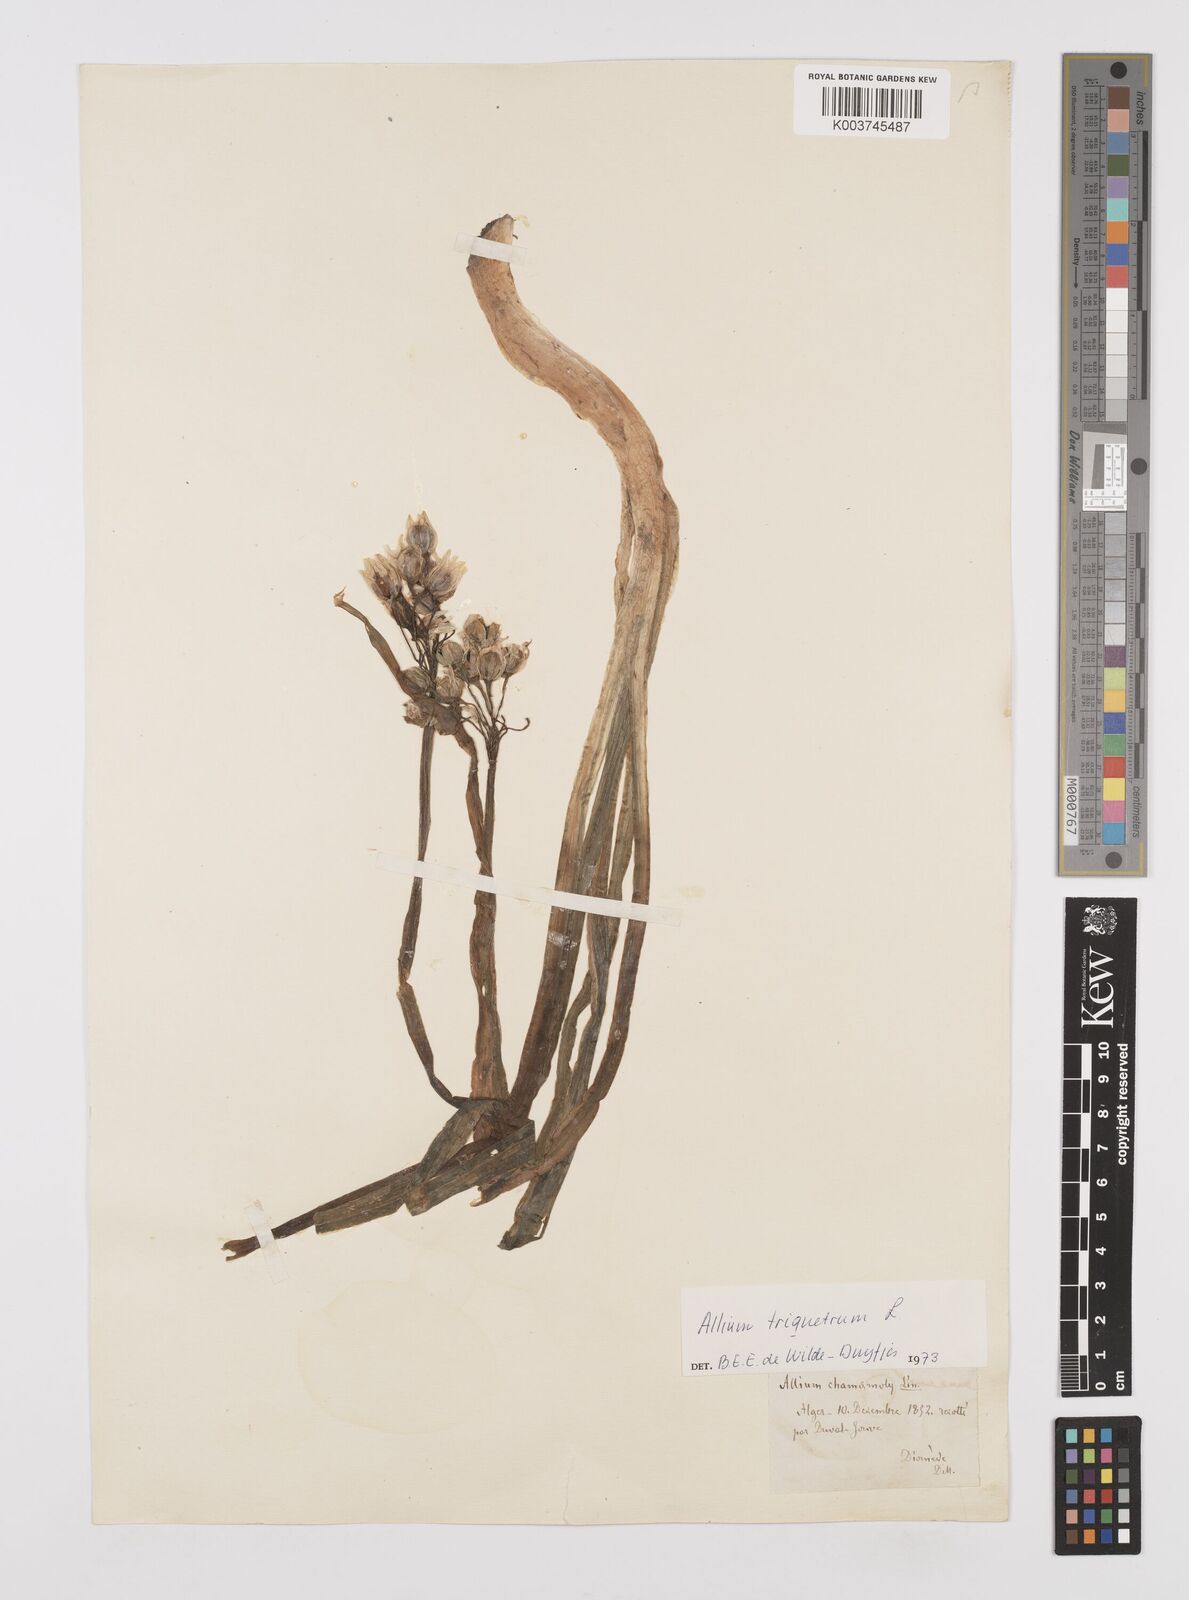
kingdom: Plantae
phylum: Tracheophyta
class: Liliopsida
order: Asparagales
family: Amaryllidaceae
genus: Allium
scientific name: Allium triquetrum
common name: Three-cornered garlic
